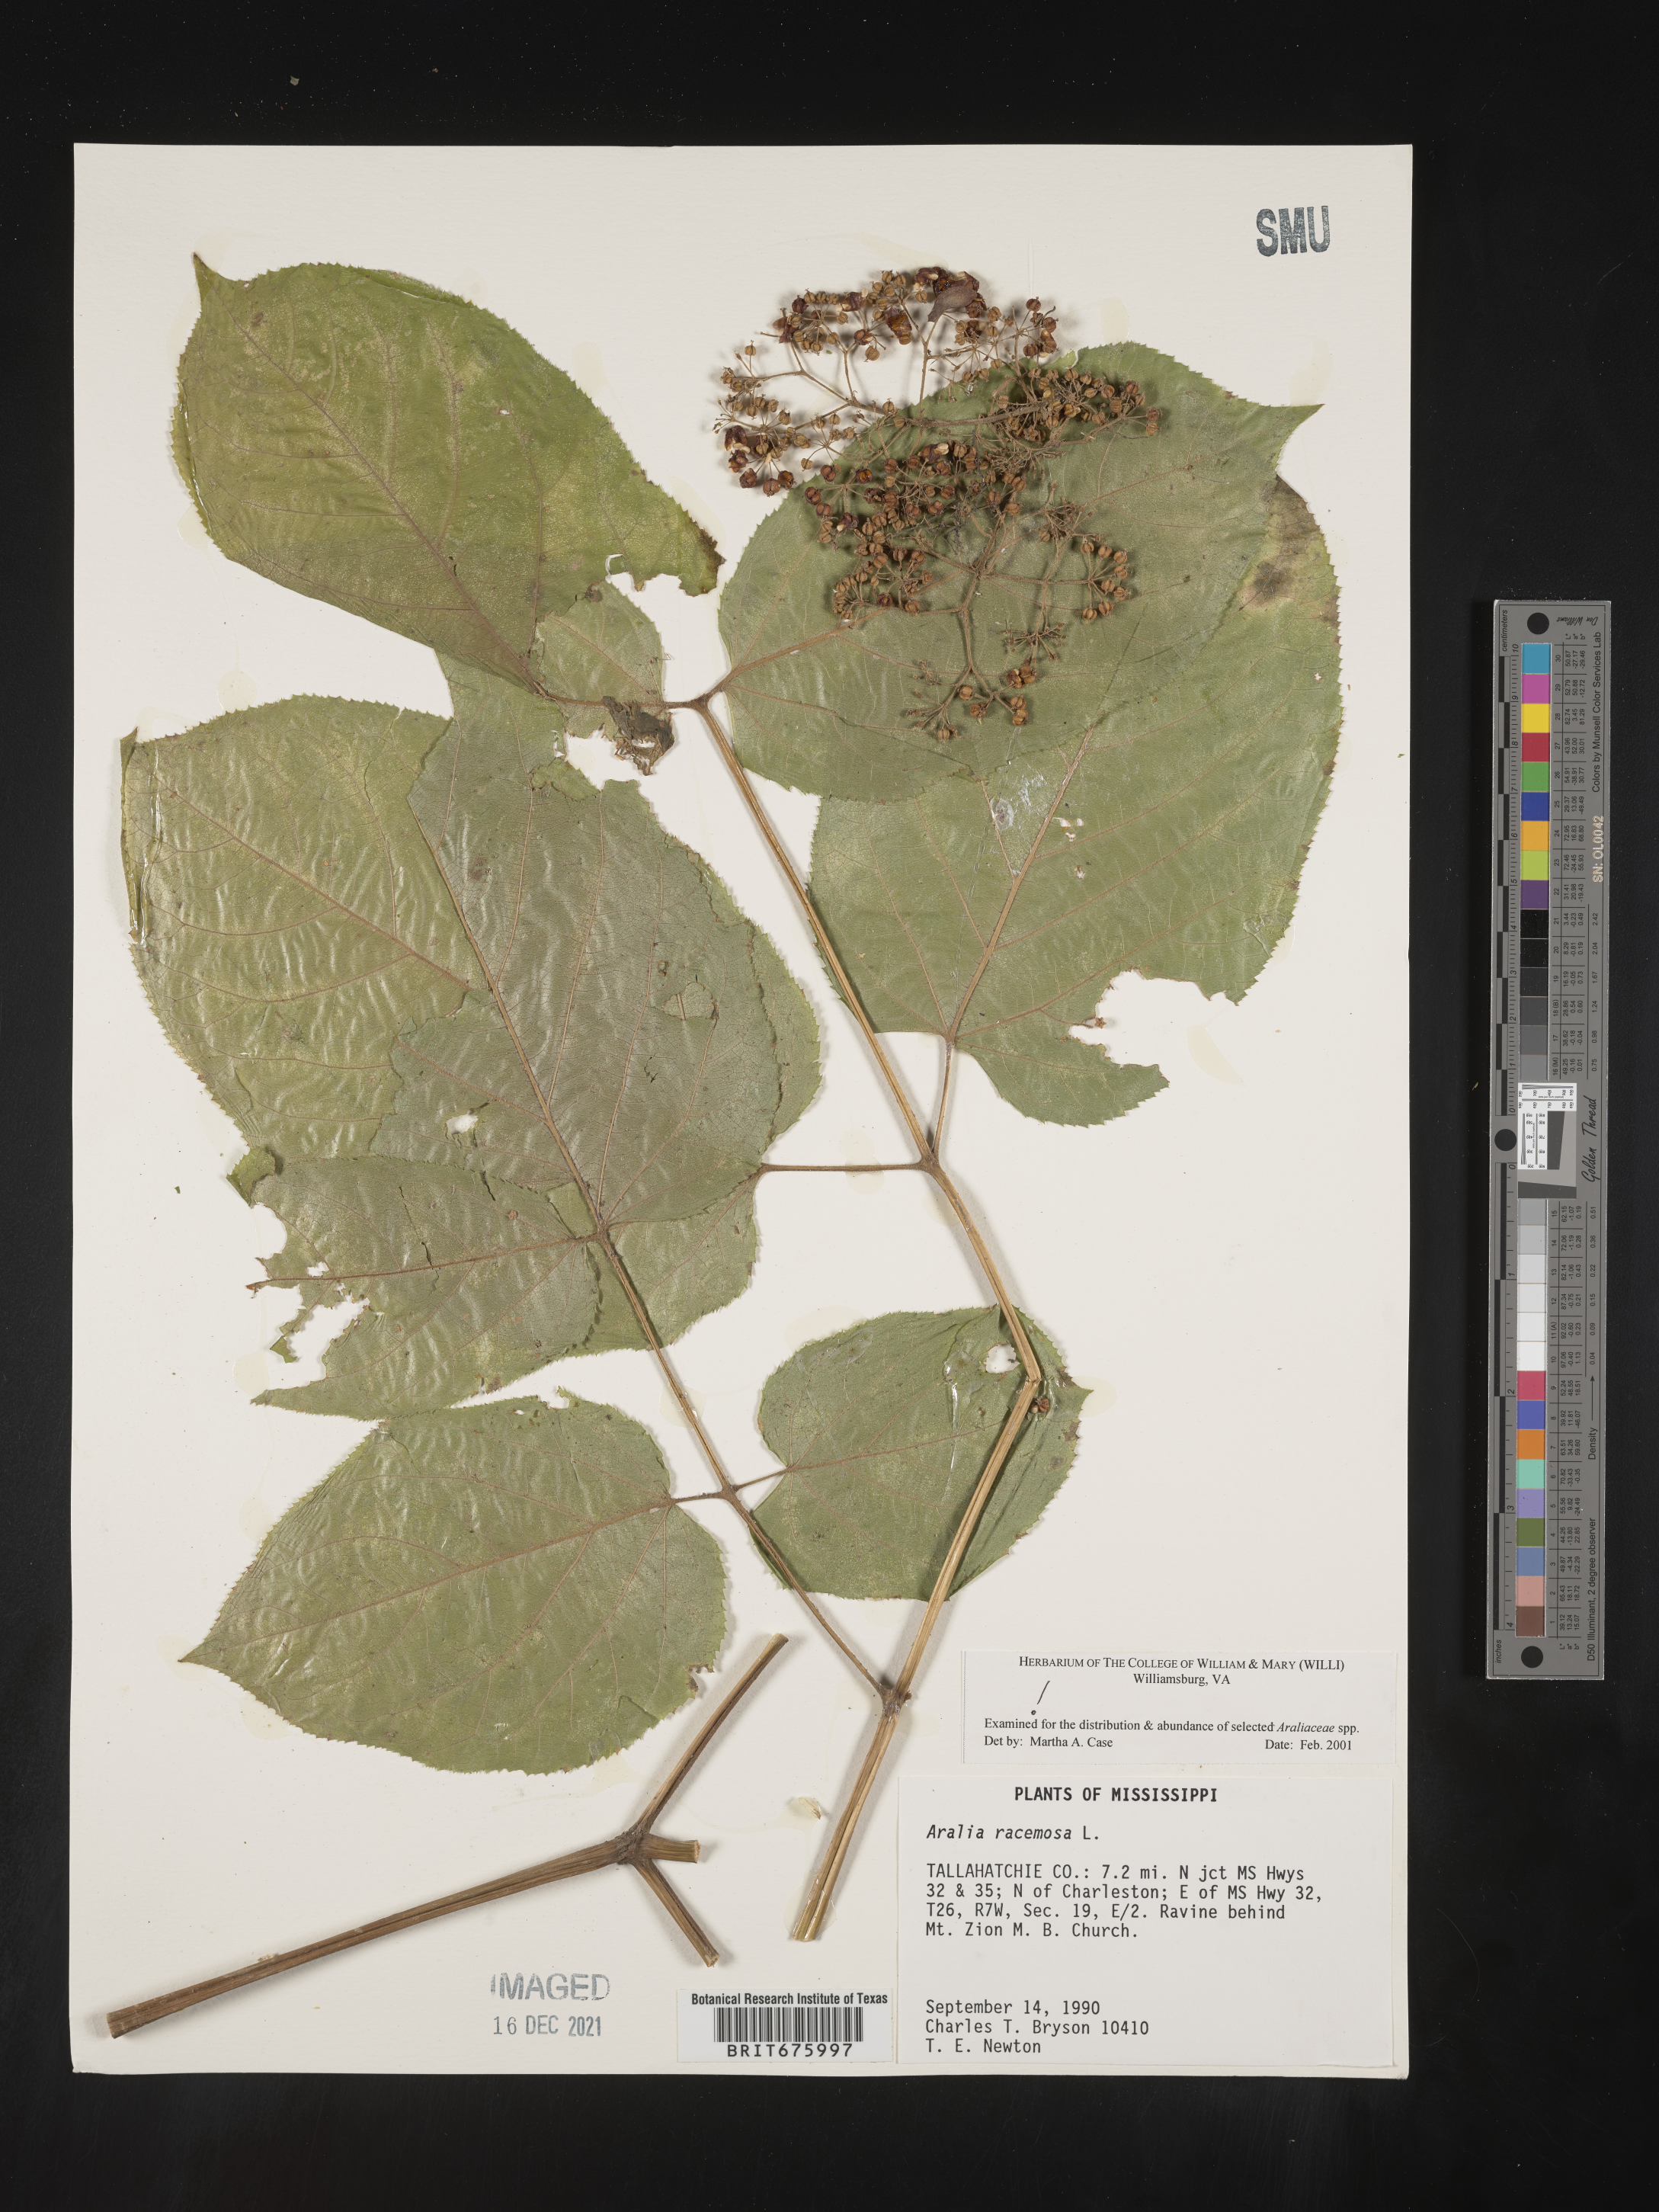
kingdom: Plantae
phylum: Tracheophyta
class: Magnoliopsida
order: Apiales
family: Araliaceae
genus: Aralia
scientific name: Aralia racemosa
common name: American-spikenard
